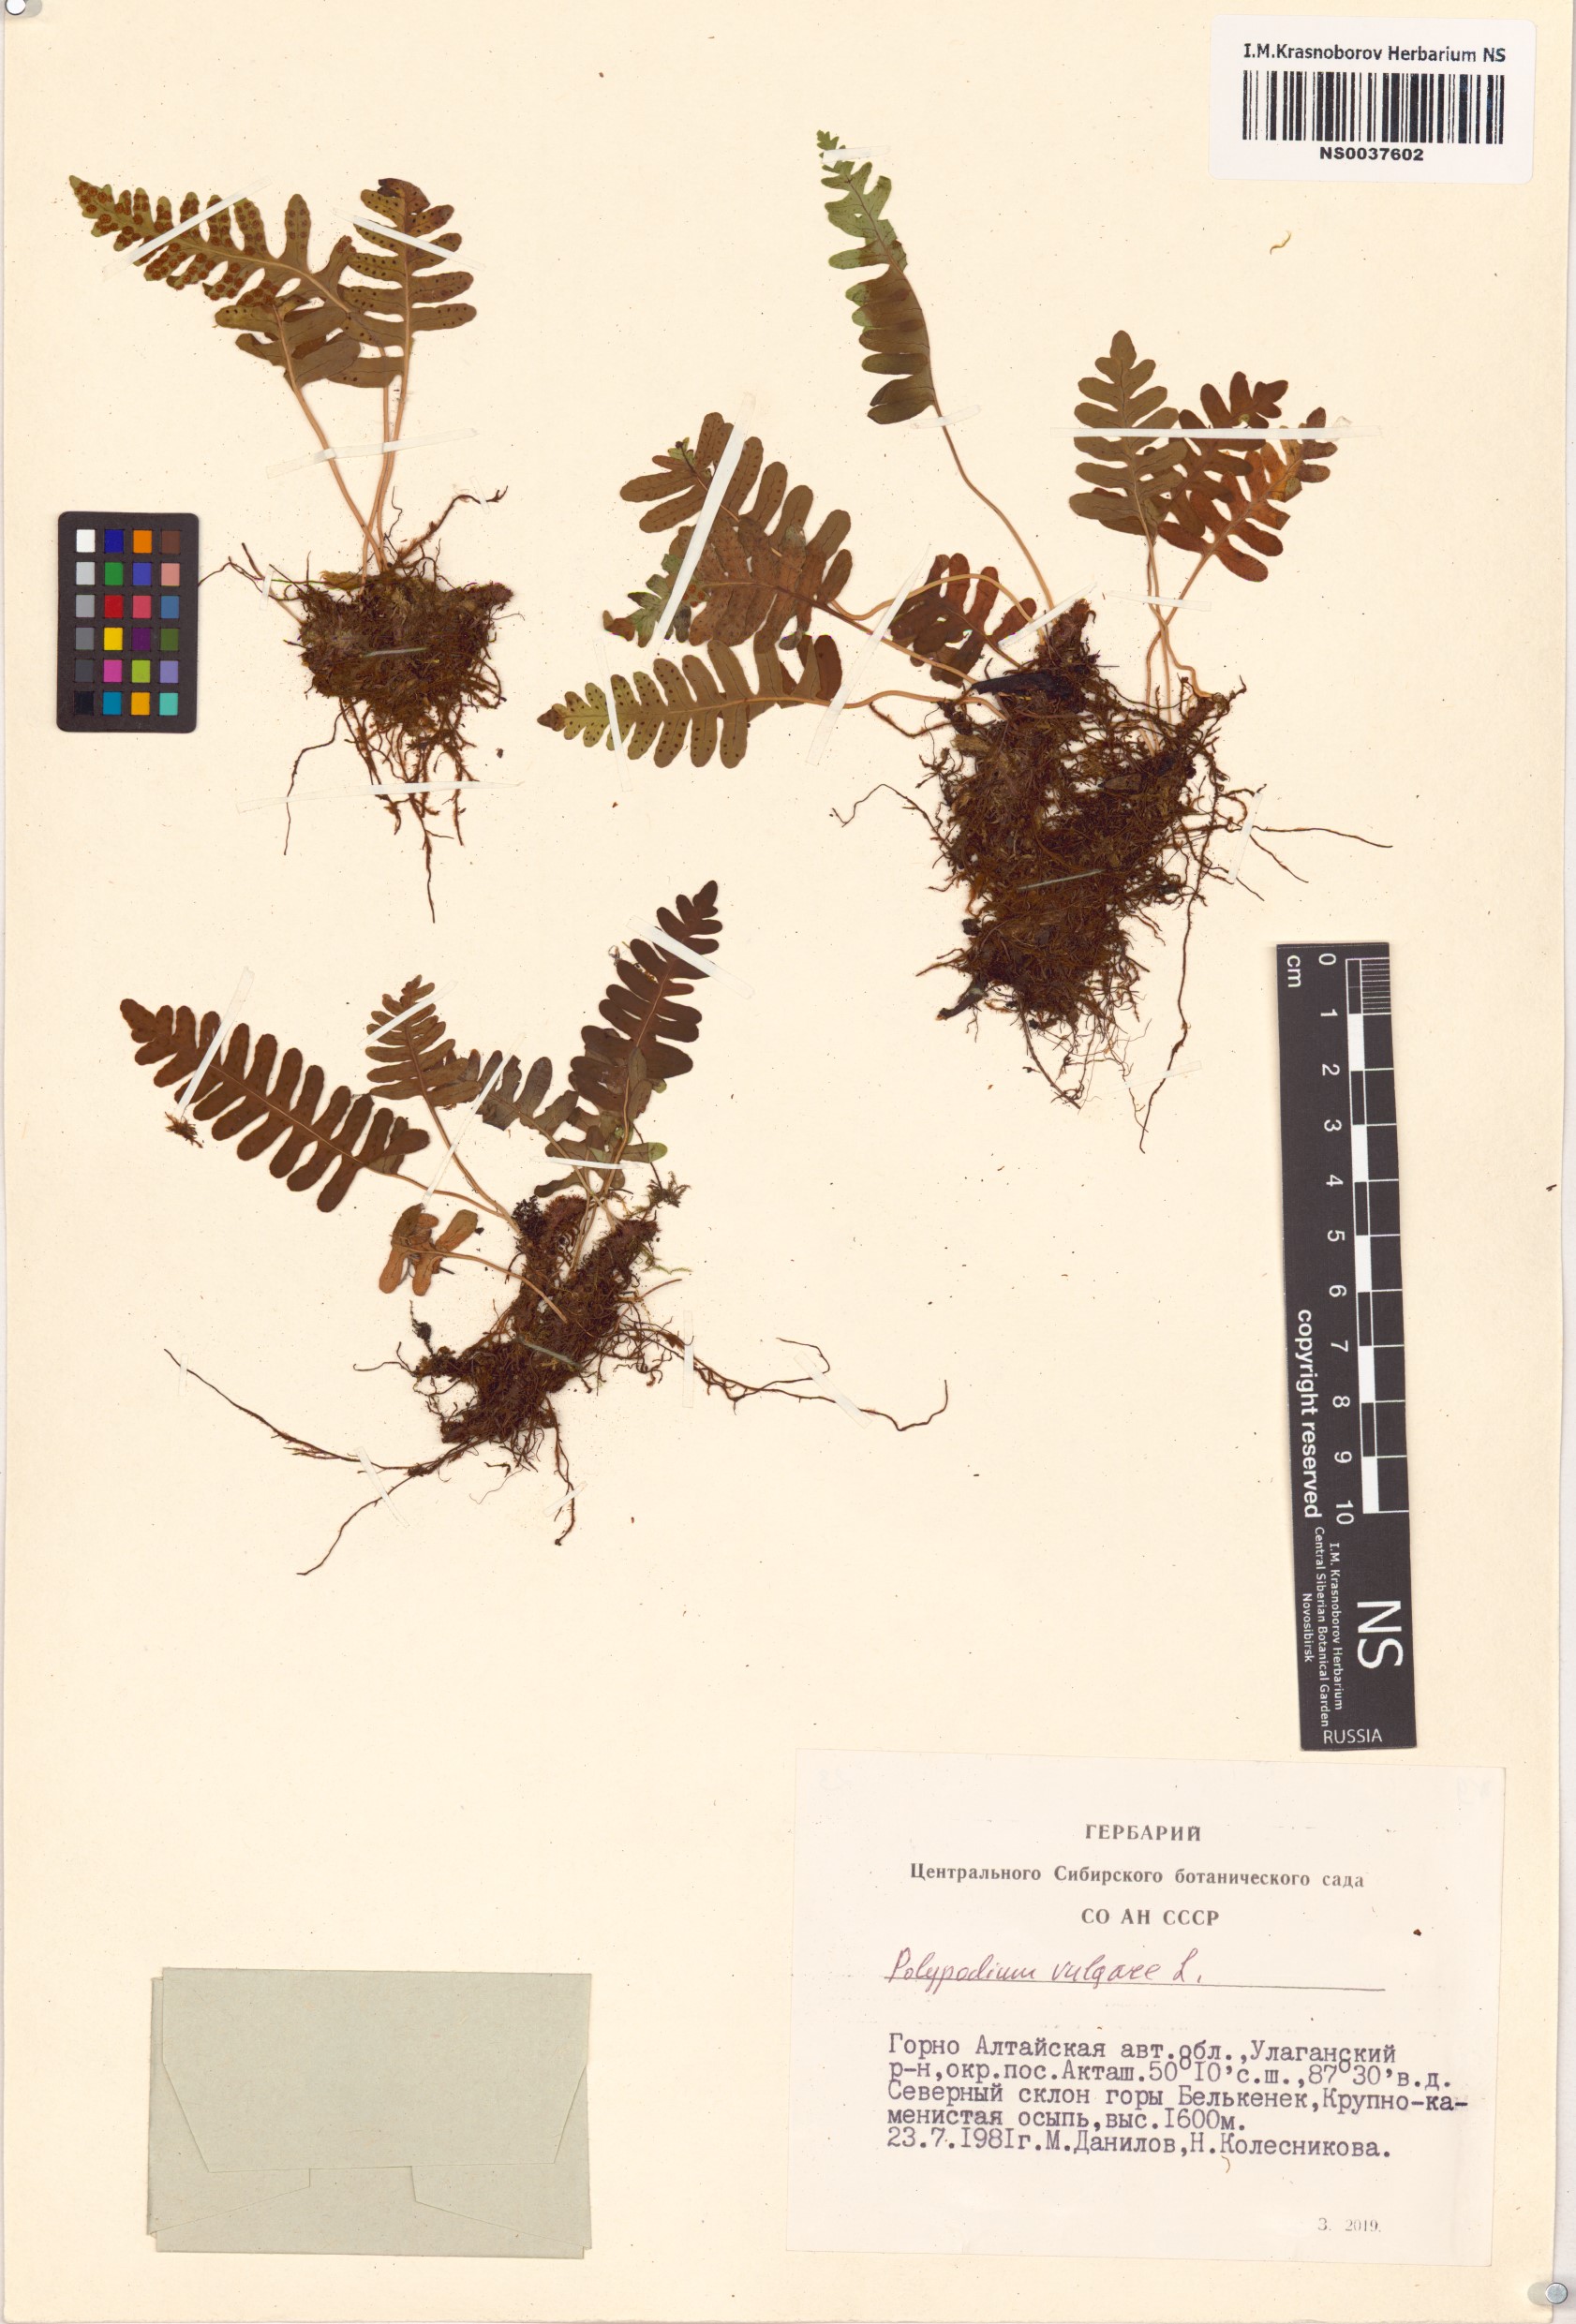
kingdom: Plantae
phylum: Tracheophyta
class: Polypodiopsida
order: Polypodiales
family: Polypodiaceae
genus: Polypodium
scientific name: Polypodium vulgare
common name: Common polypody
